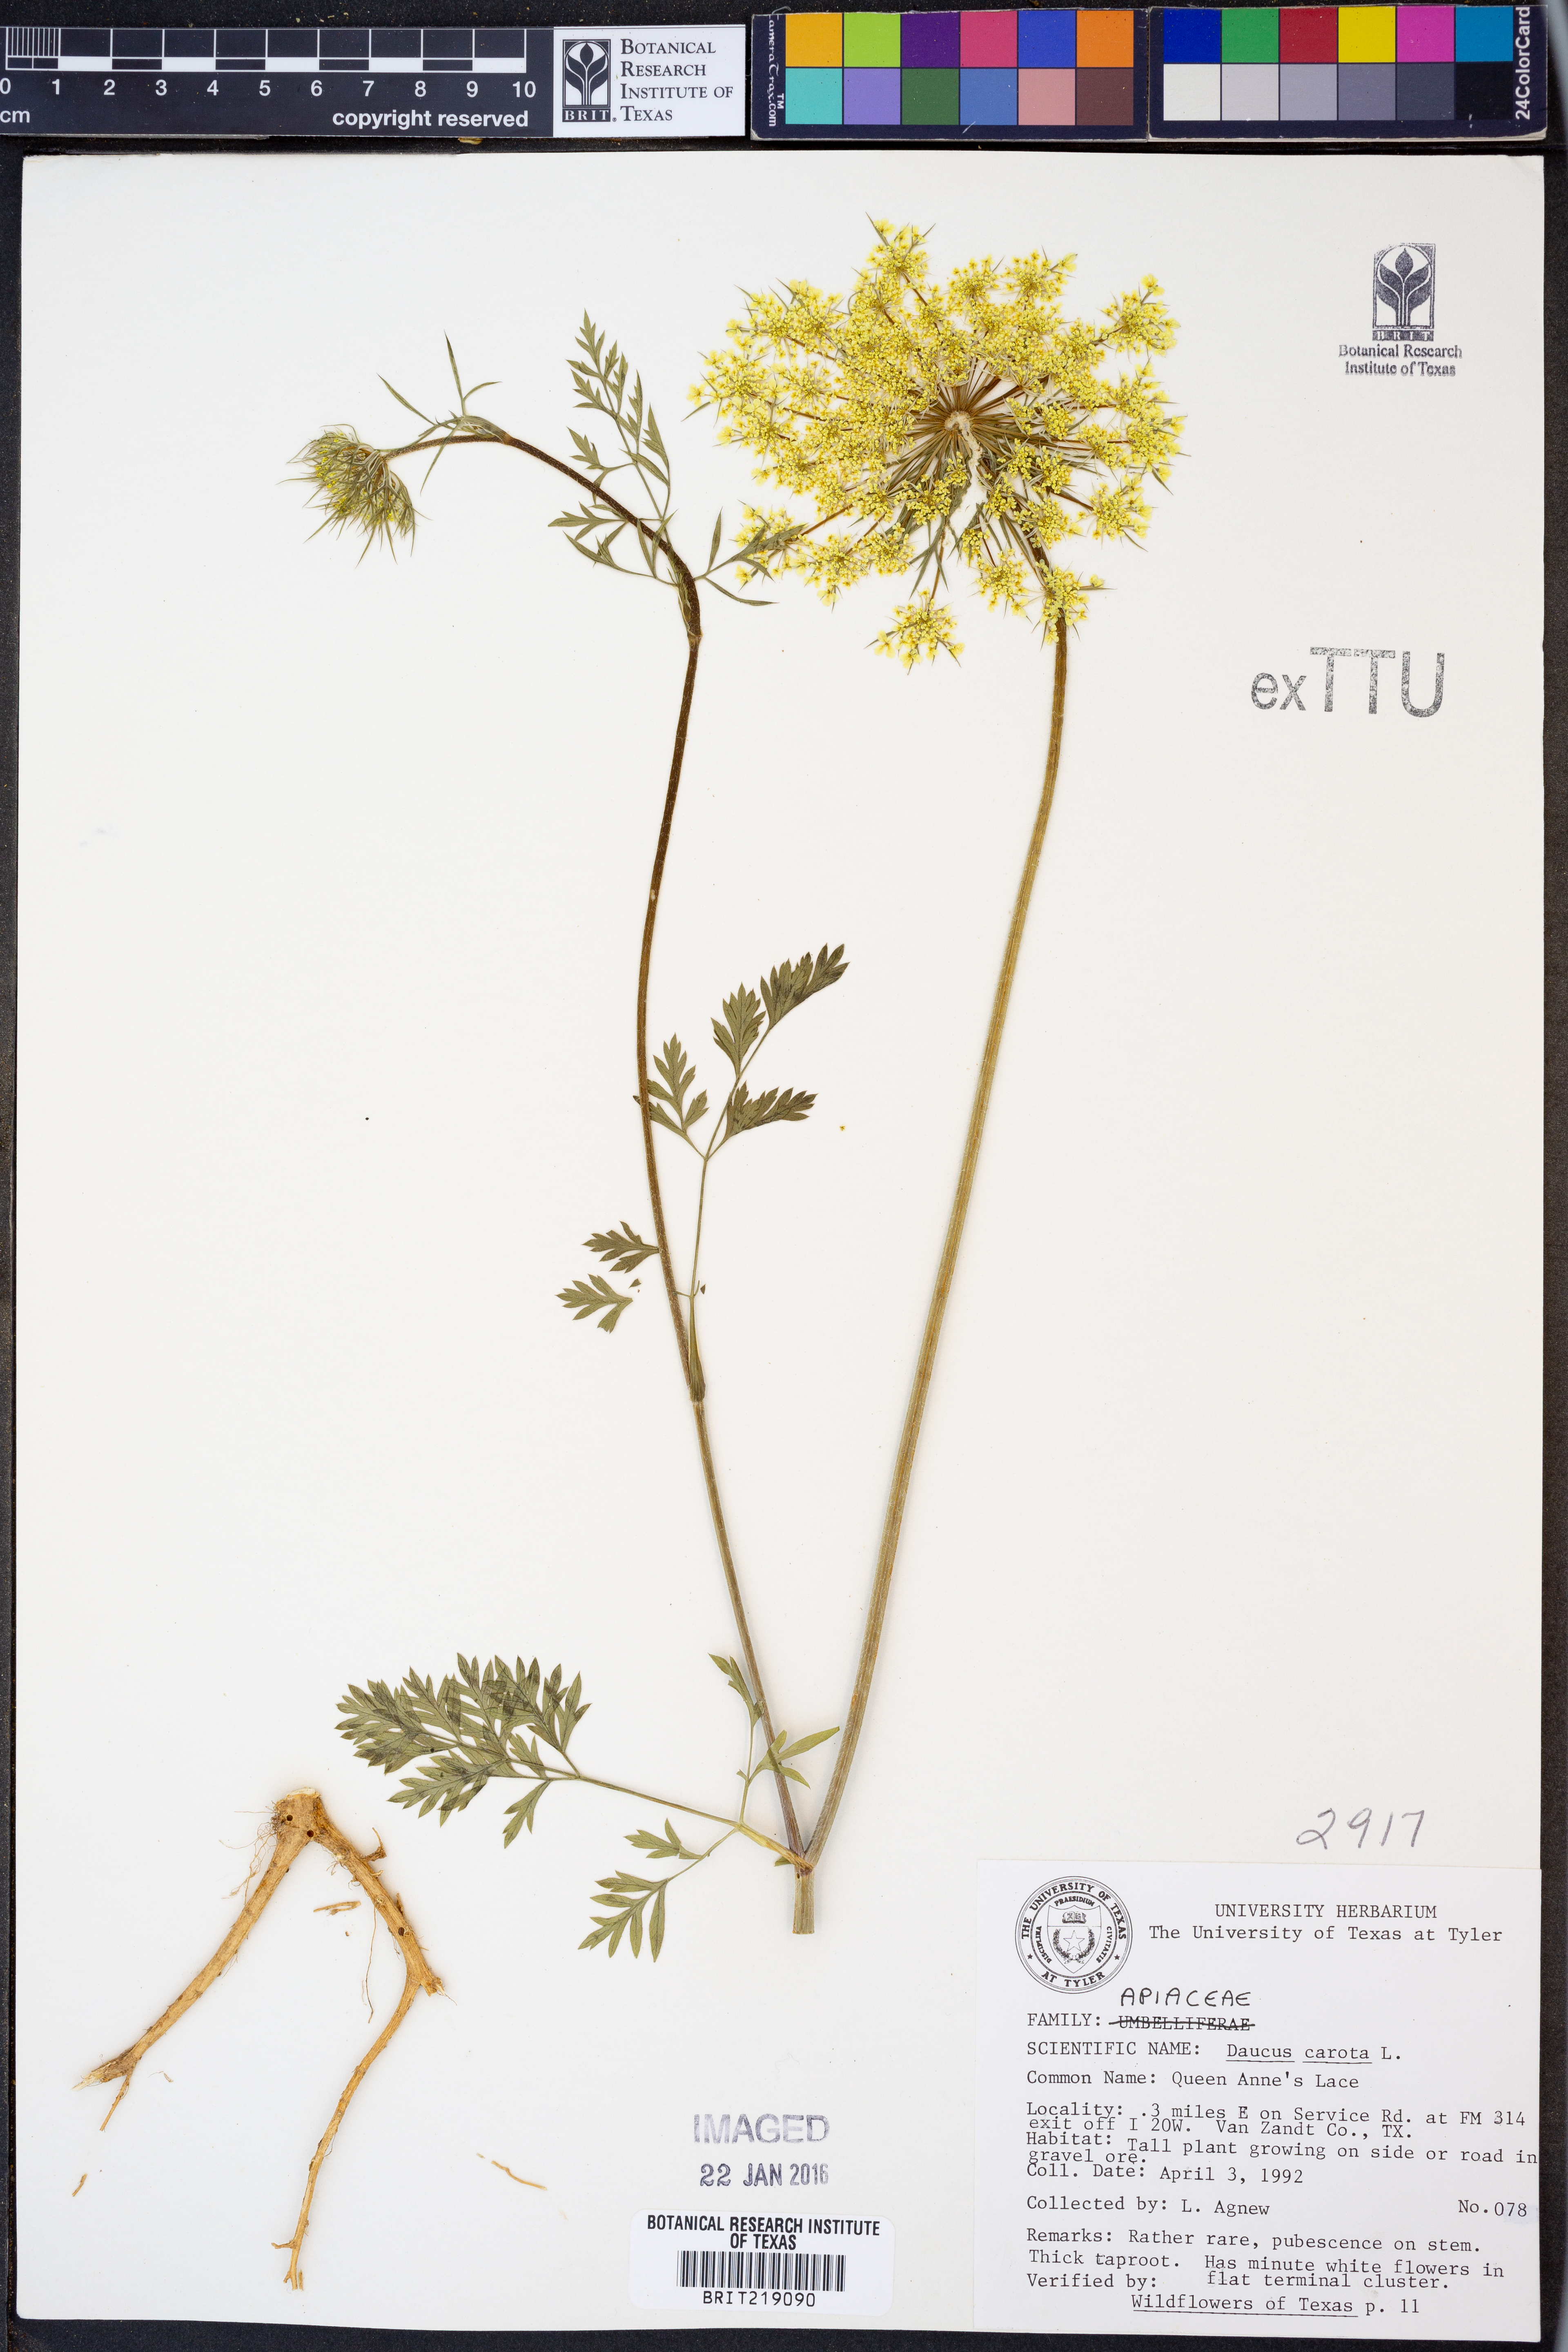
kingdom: Plantae
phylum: Tracheophyta
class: Magnoliopsida
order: Apiales
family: Apiaceae
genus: Daucus
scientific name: Daucus carota
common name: Wild carrot
